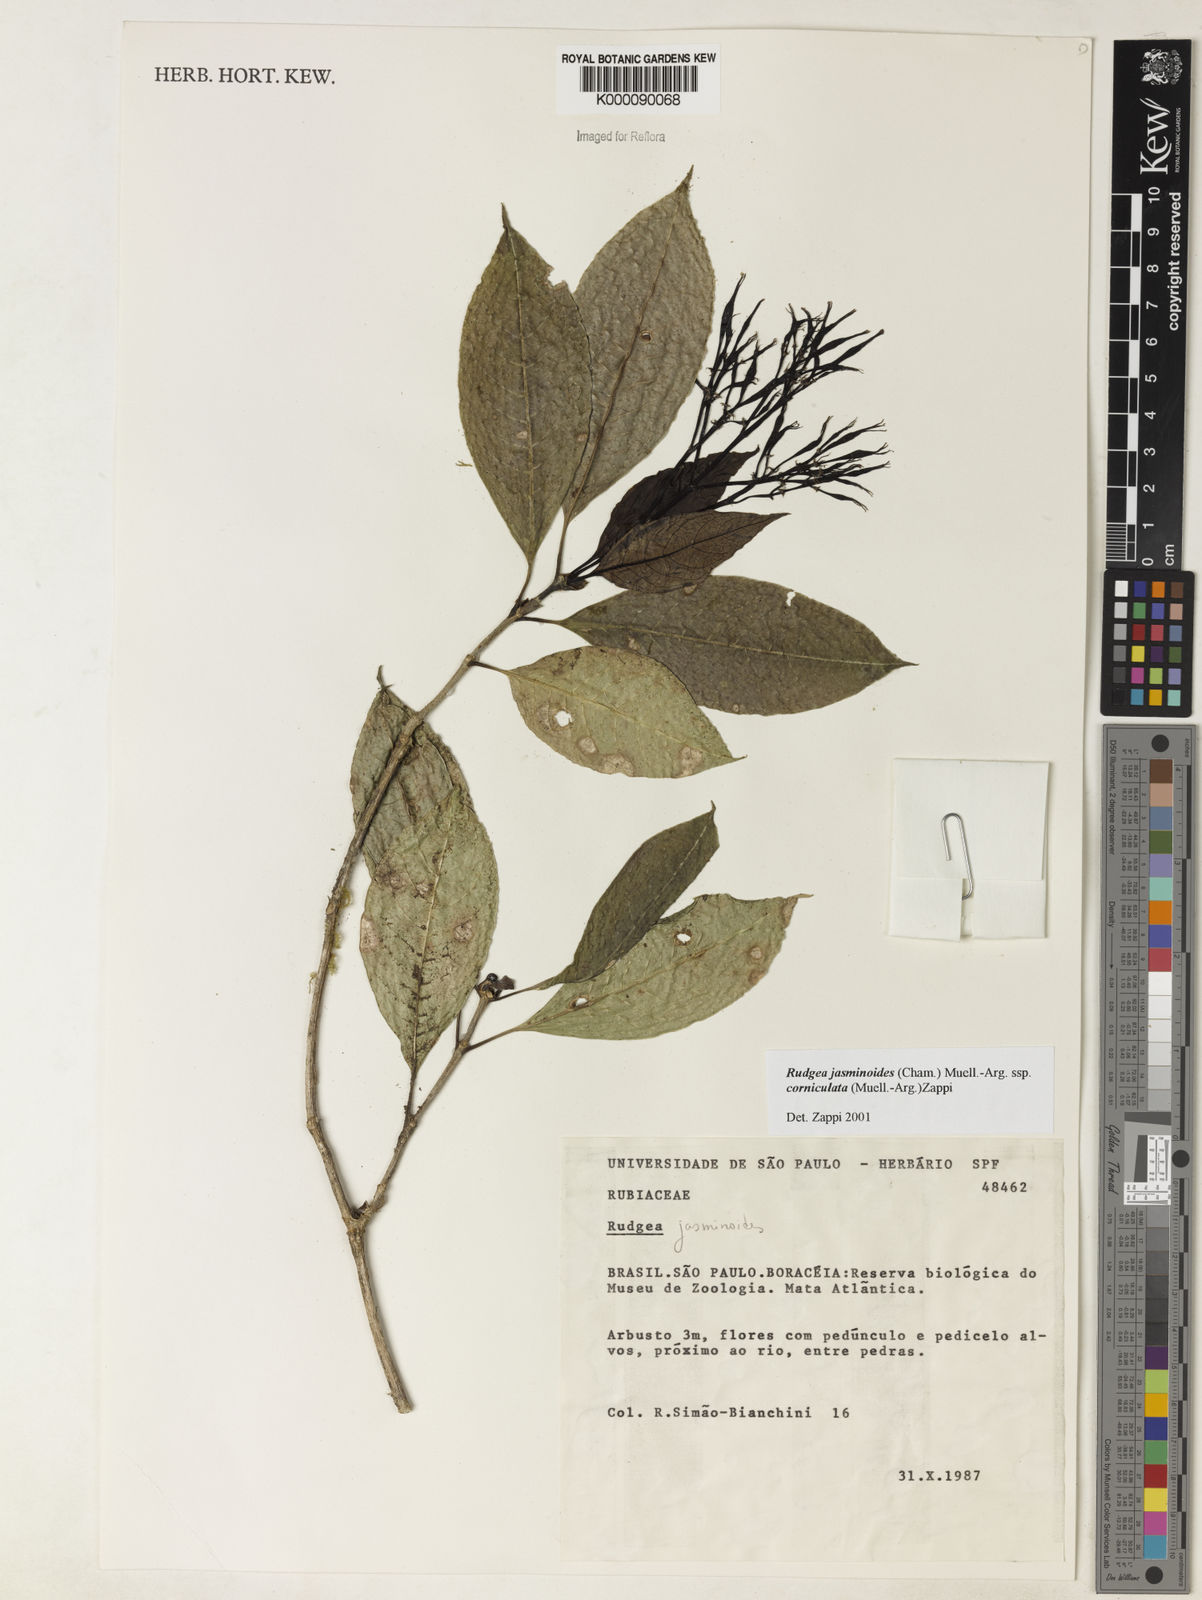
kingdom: Plantae
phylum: Tracheophyta
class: Magnoliopsida
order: Gentianales
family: Rubiaceae
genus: Rudgea
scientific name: Rudgea jasminoides
